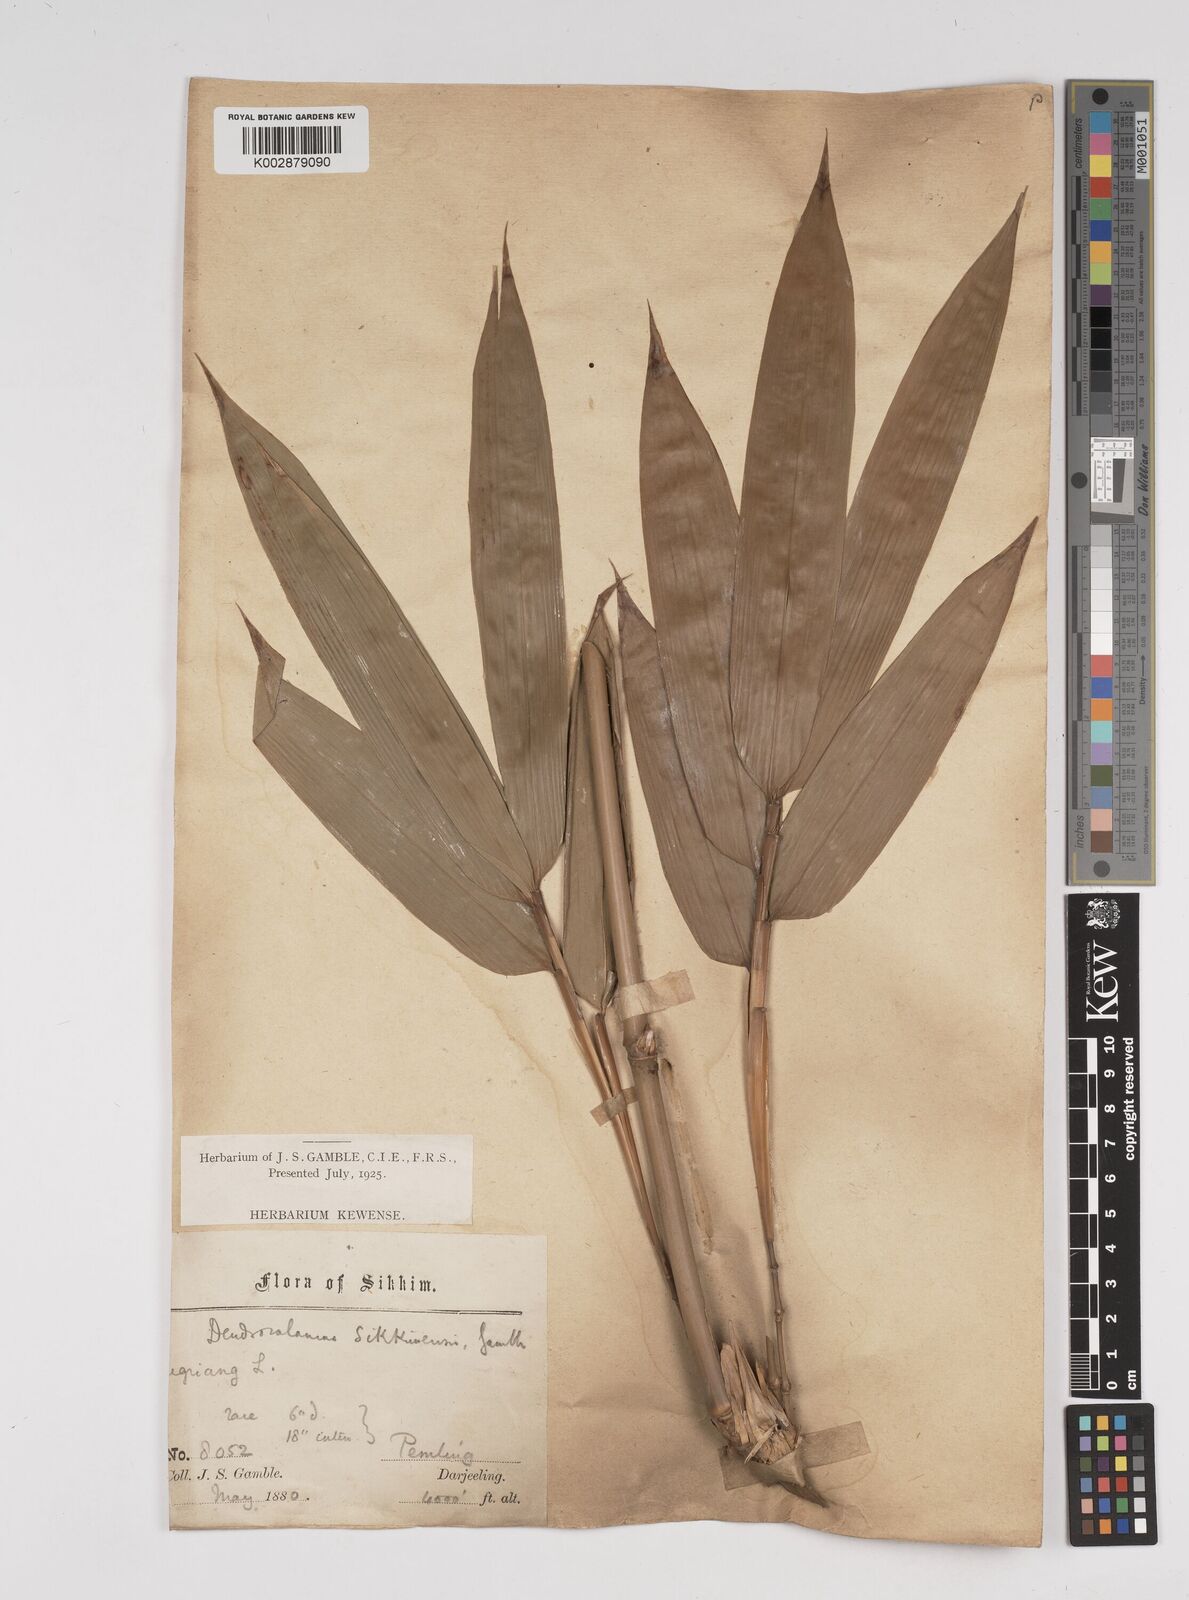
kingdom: Plantae
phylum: Tracheophyta
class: Liliopsida
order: Poales
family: Poaceae
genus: Dendrocalamus
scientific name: Dendrocalamus sikkimensis
